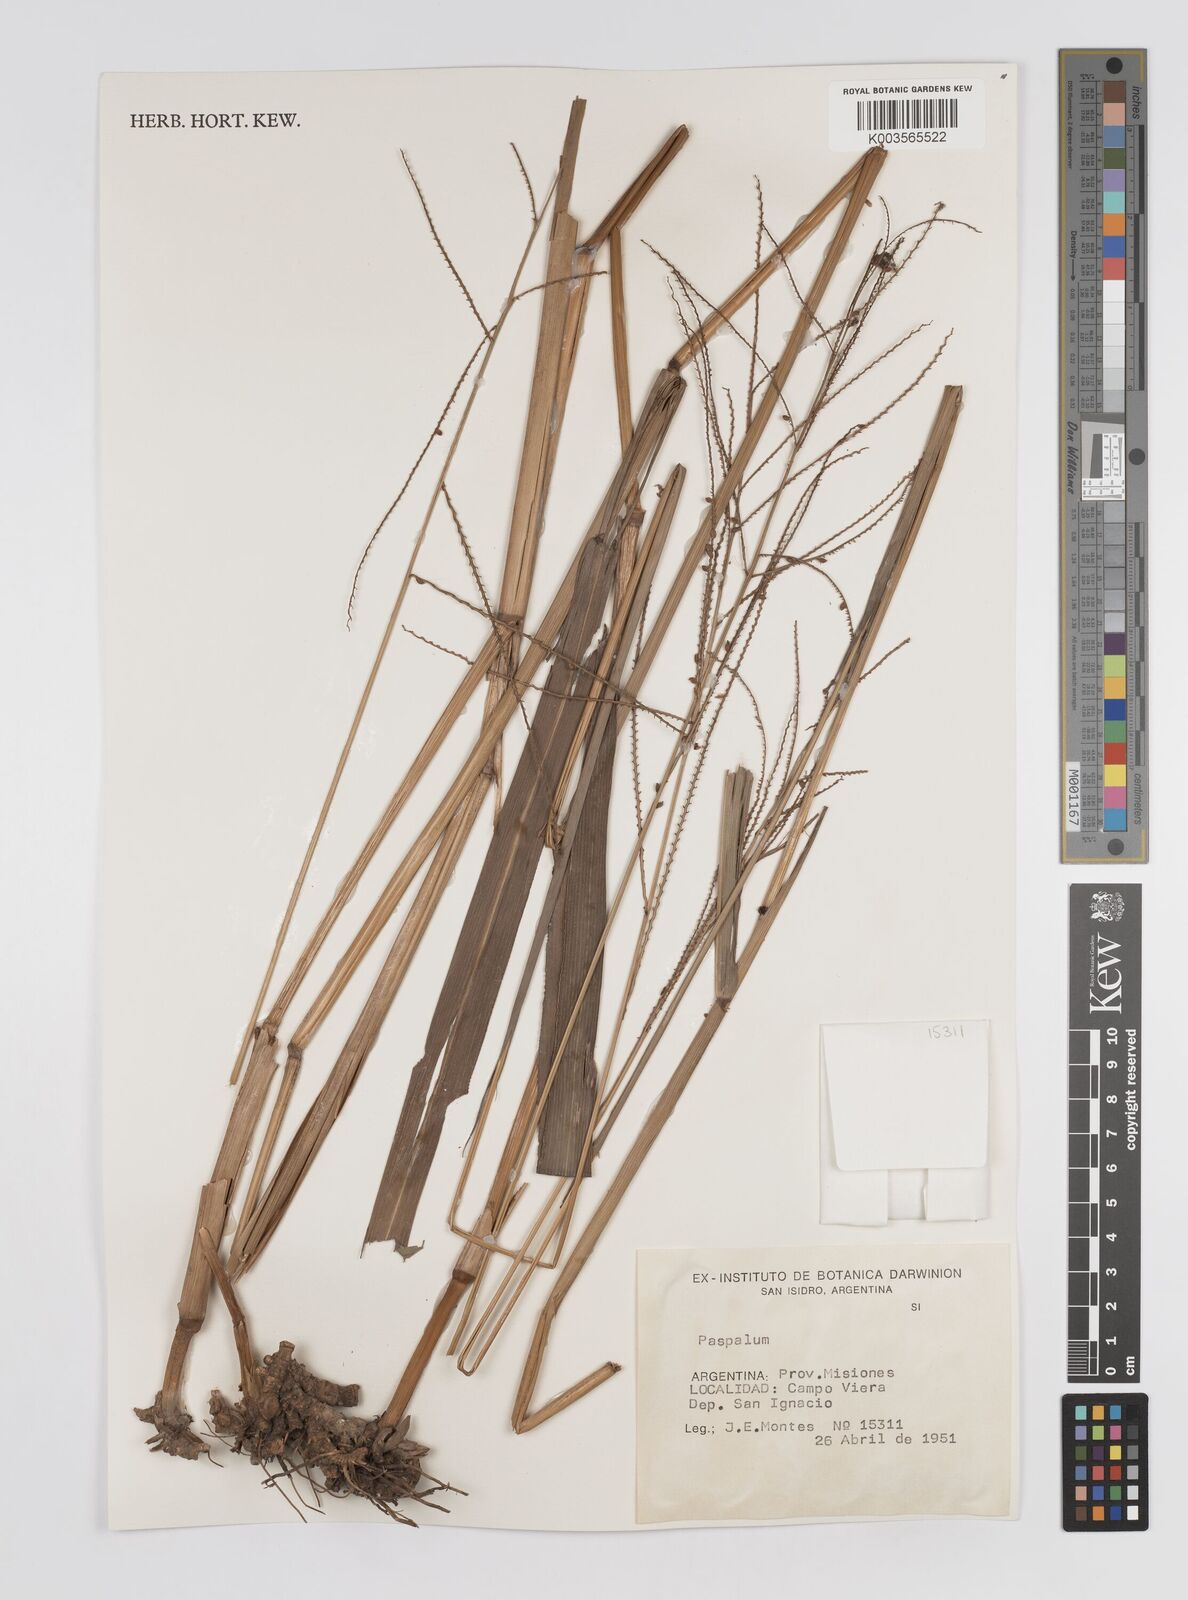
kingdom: Plantae
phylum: Tracheophyta
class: Liliopsida
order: Poales
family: Poaceae
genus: Paspalum
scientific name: Paspalum
